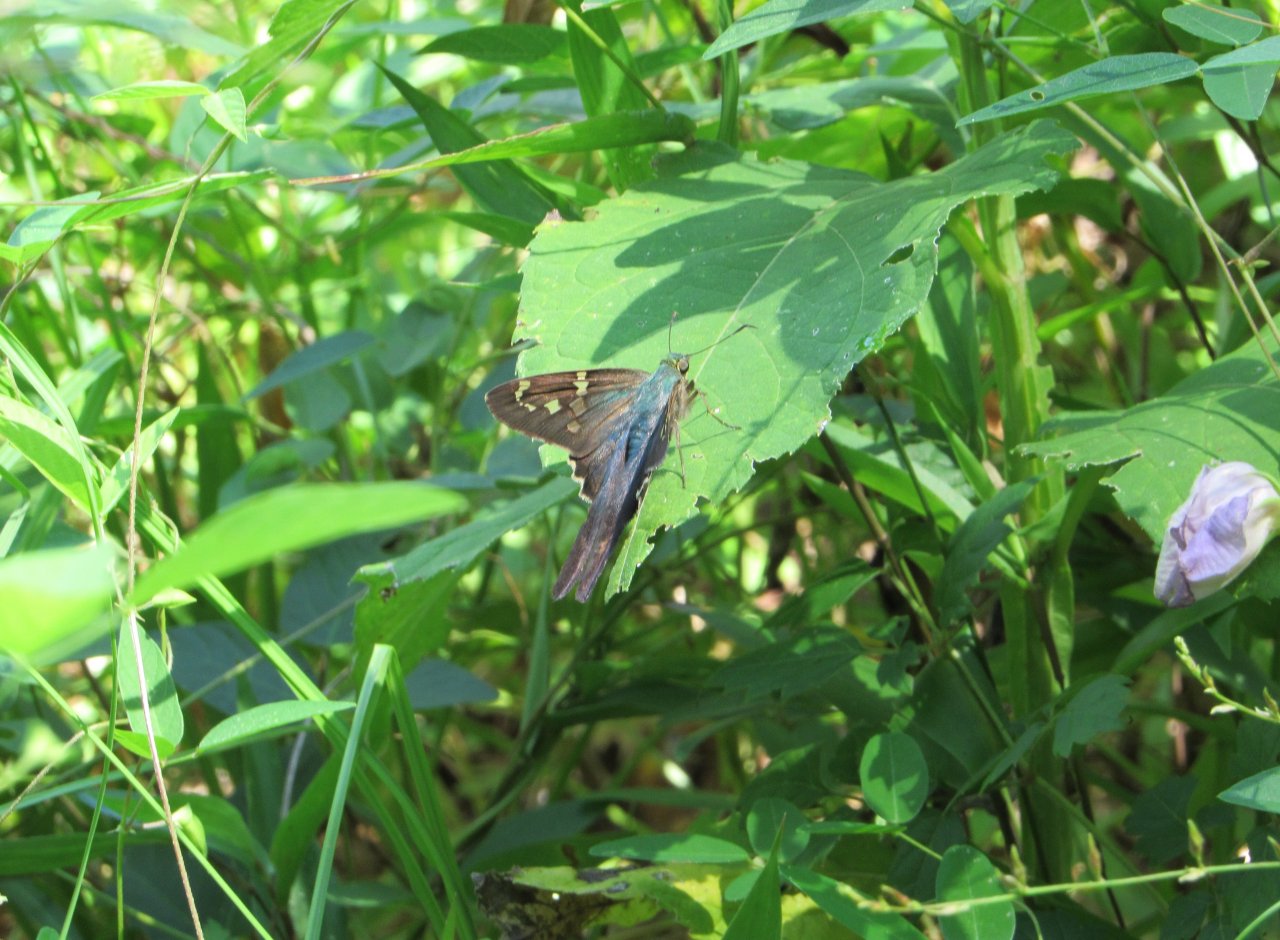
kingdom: Animalia
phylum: Arthropoda
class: Insecta
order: Lepidoptera
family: Hesperiidae
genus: Urbanus
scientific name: Urbanus proteus
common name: Long-tailed Skipper
